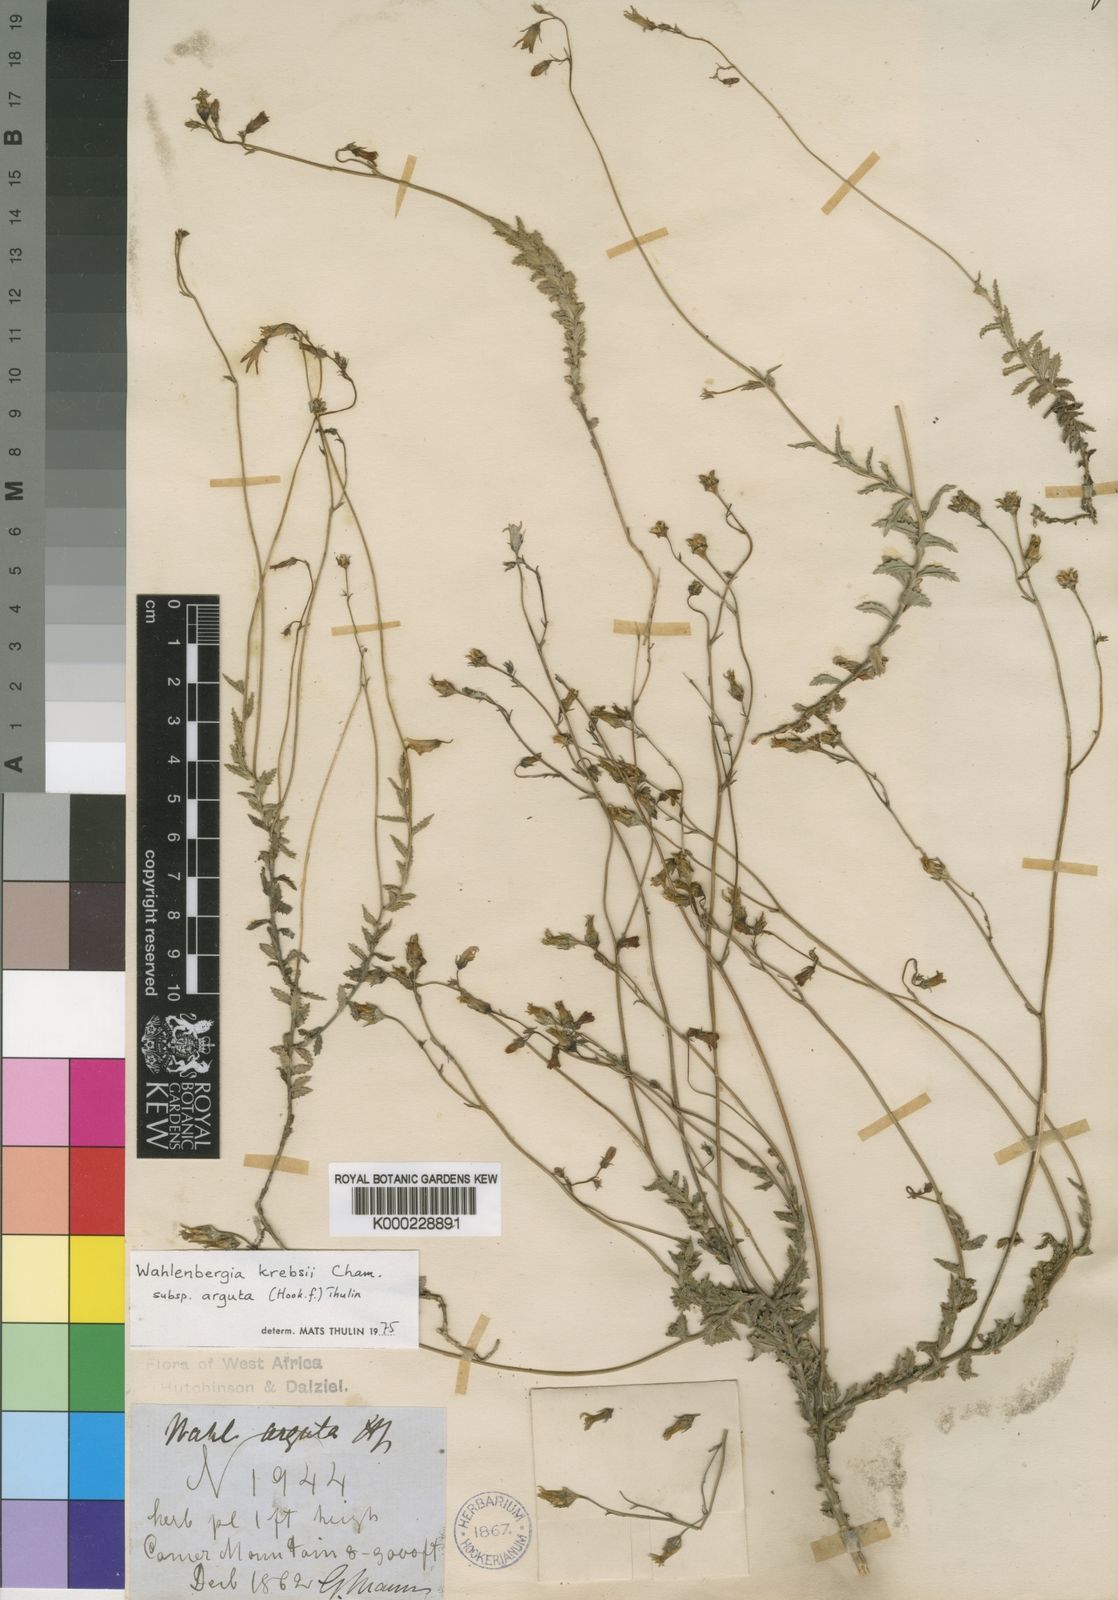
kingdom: Plantae
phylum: Tracheophyta
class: Magnoliopsida
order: Asterales
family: Campanulaceae
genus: Wahlenbergia
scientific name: Wahlenbergia krebsii
